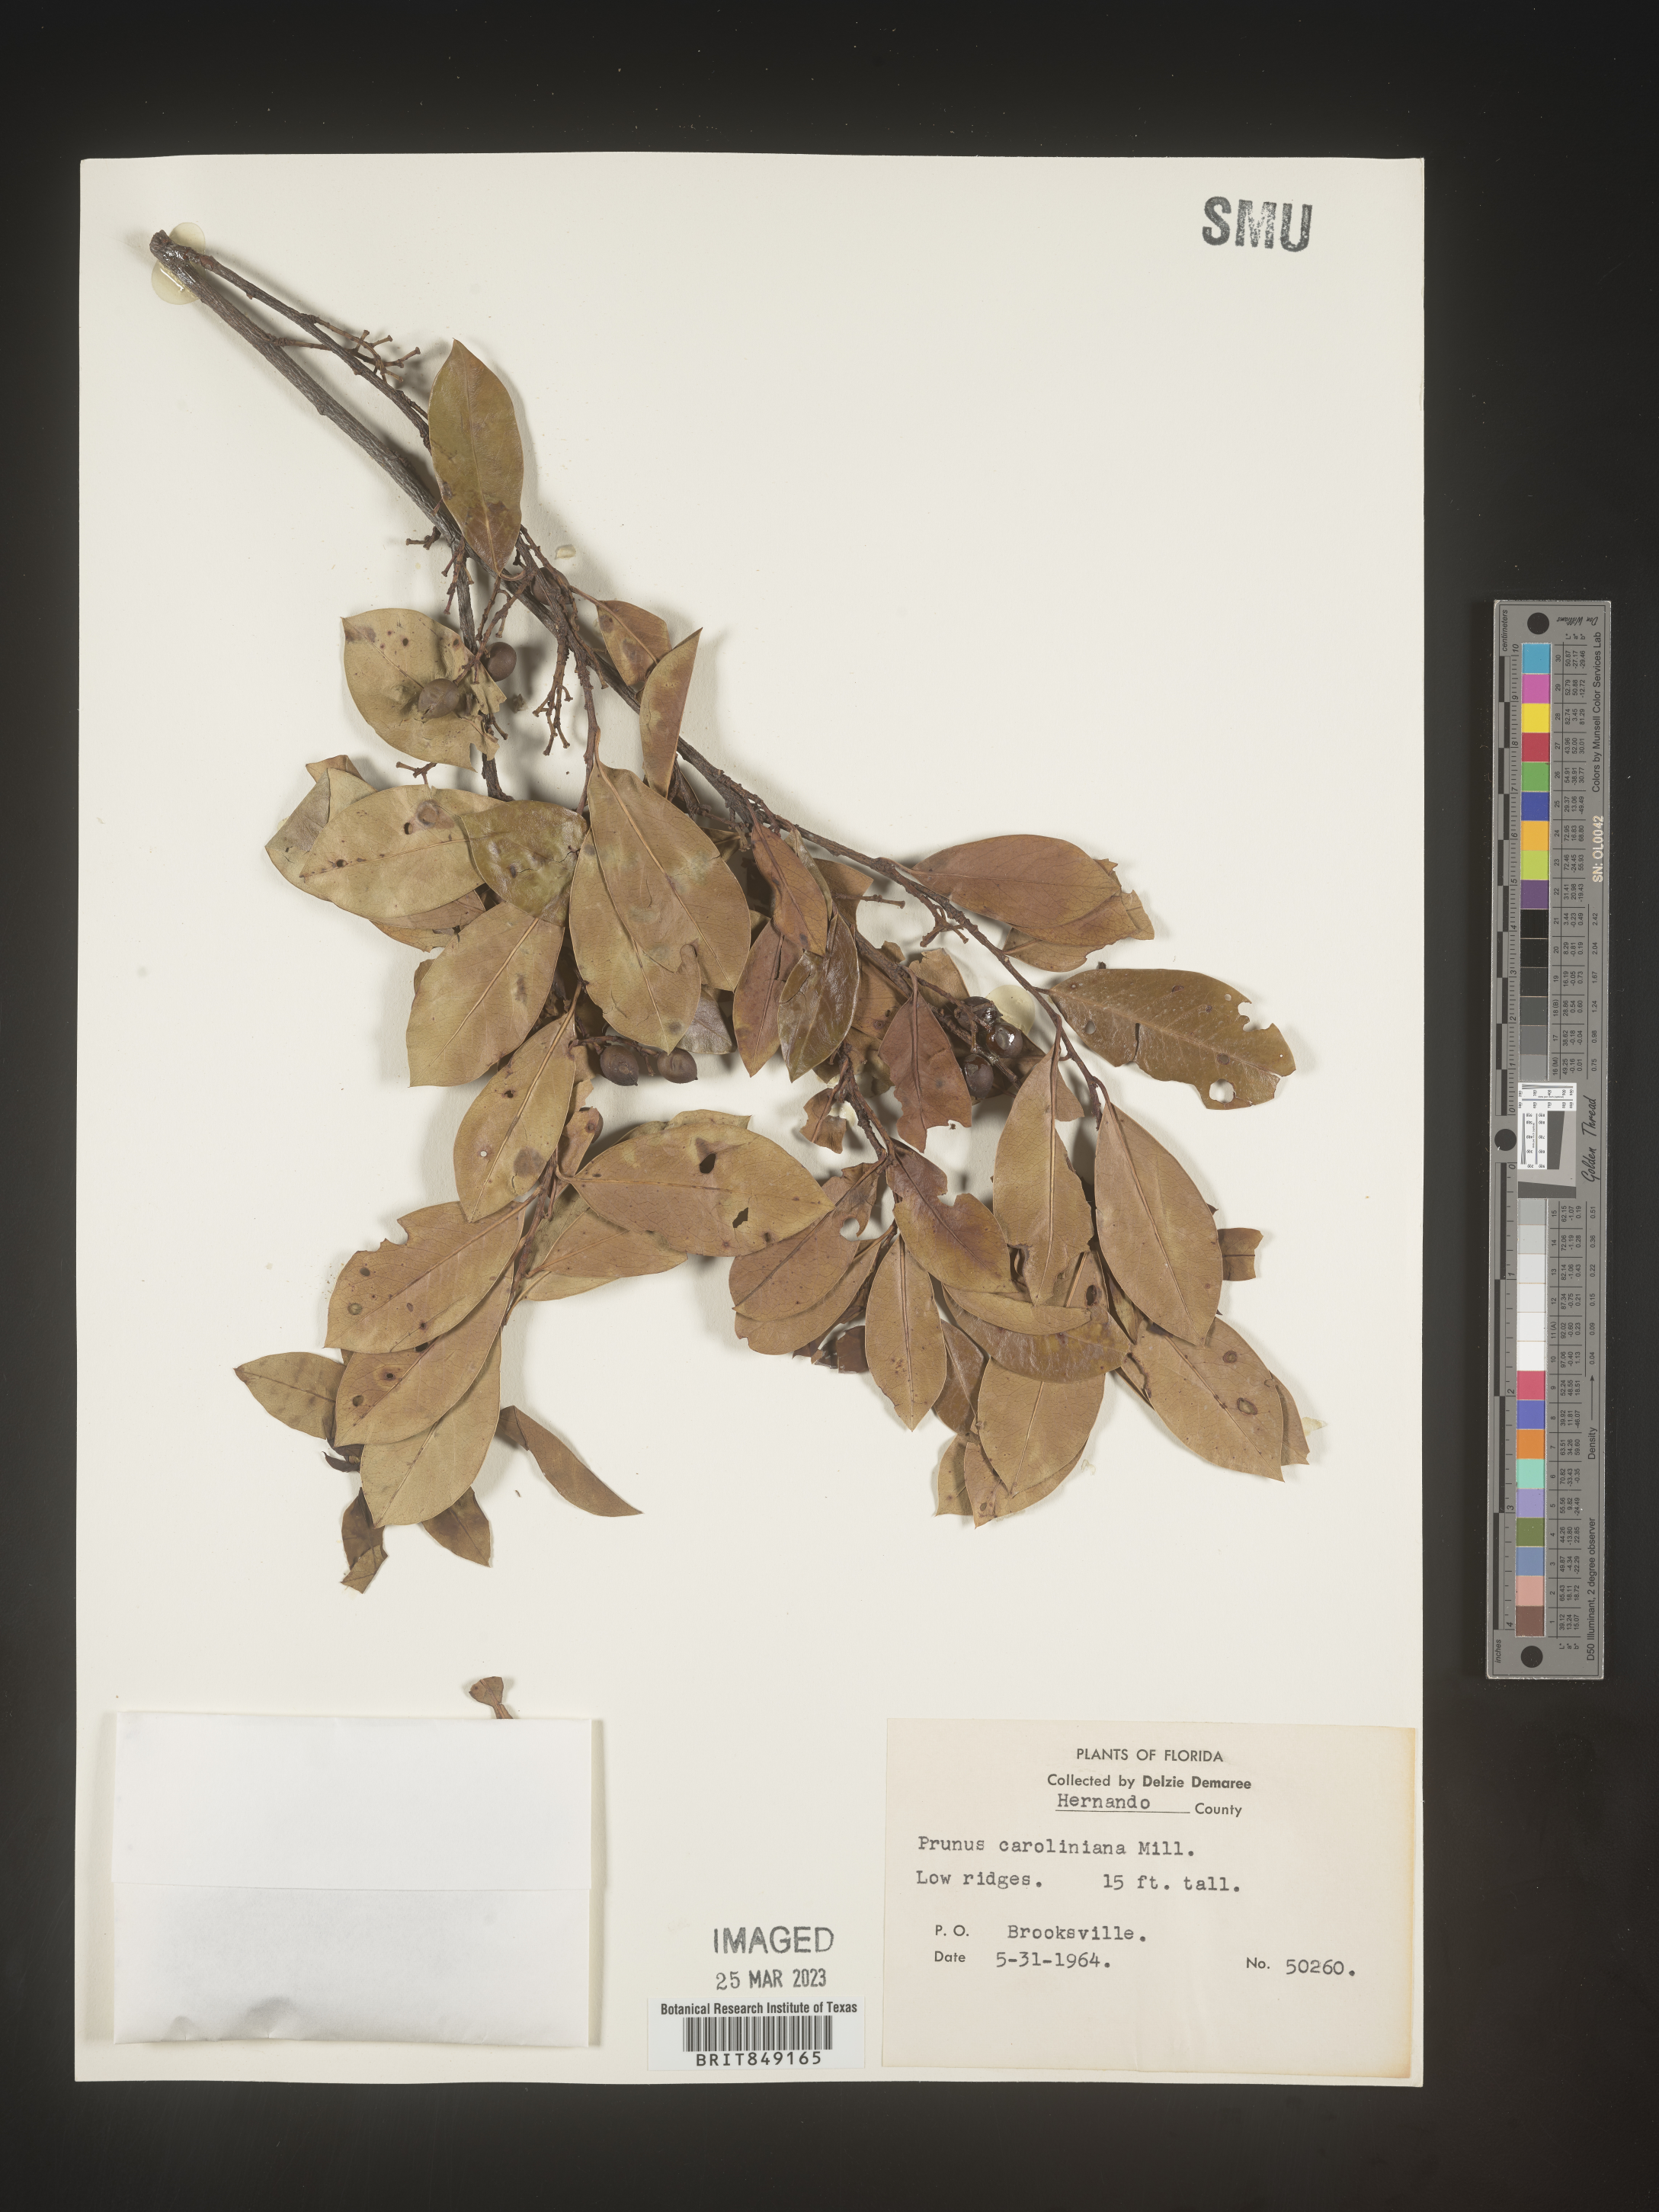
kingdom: Plantae
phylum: Tracheophyta
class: Magnoliopsida
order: Rosales
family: Rosaceae
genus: Prunus
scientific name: Prunus caroliniana
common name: Carolina laurel cherry
